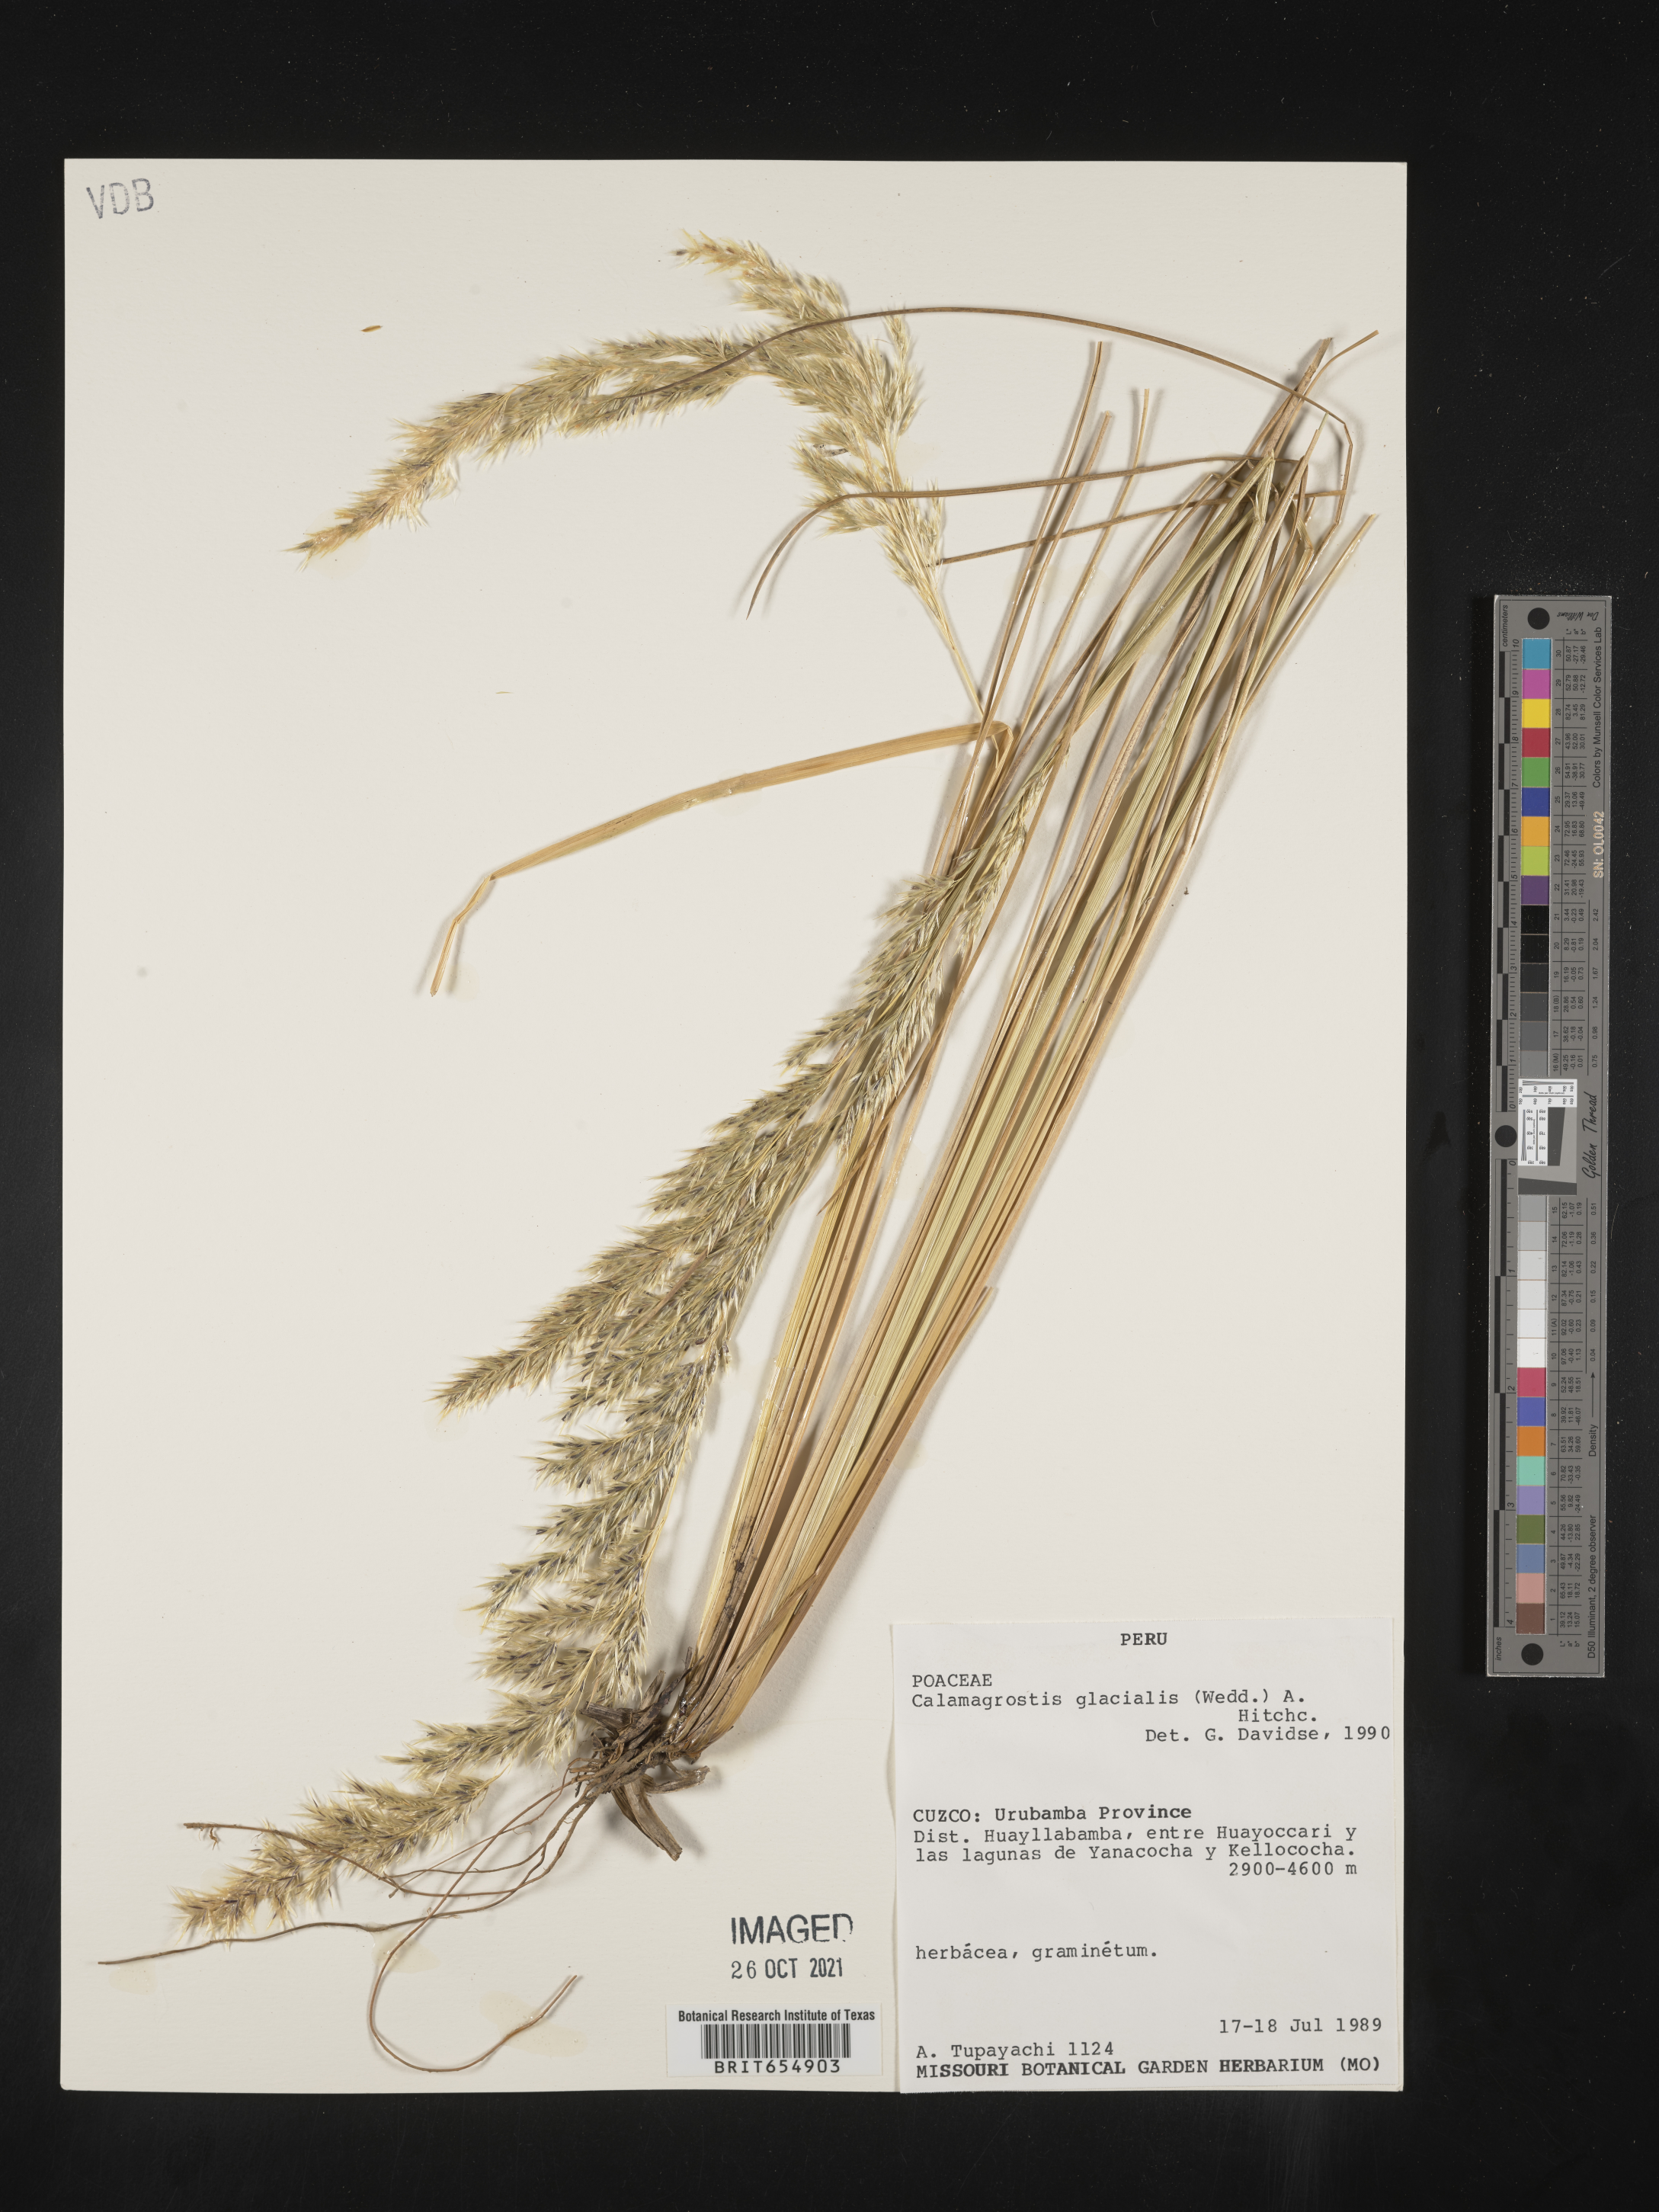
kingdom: Plantae
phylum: Tracheophyta
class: Liliopsida
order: Poales
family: Poaceae
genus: Calamagrostis
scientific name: Calamagrostis
